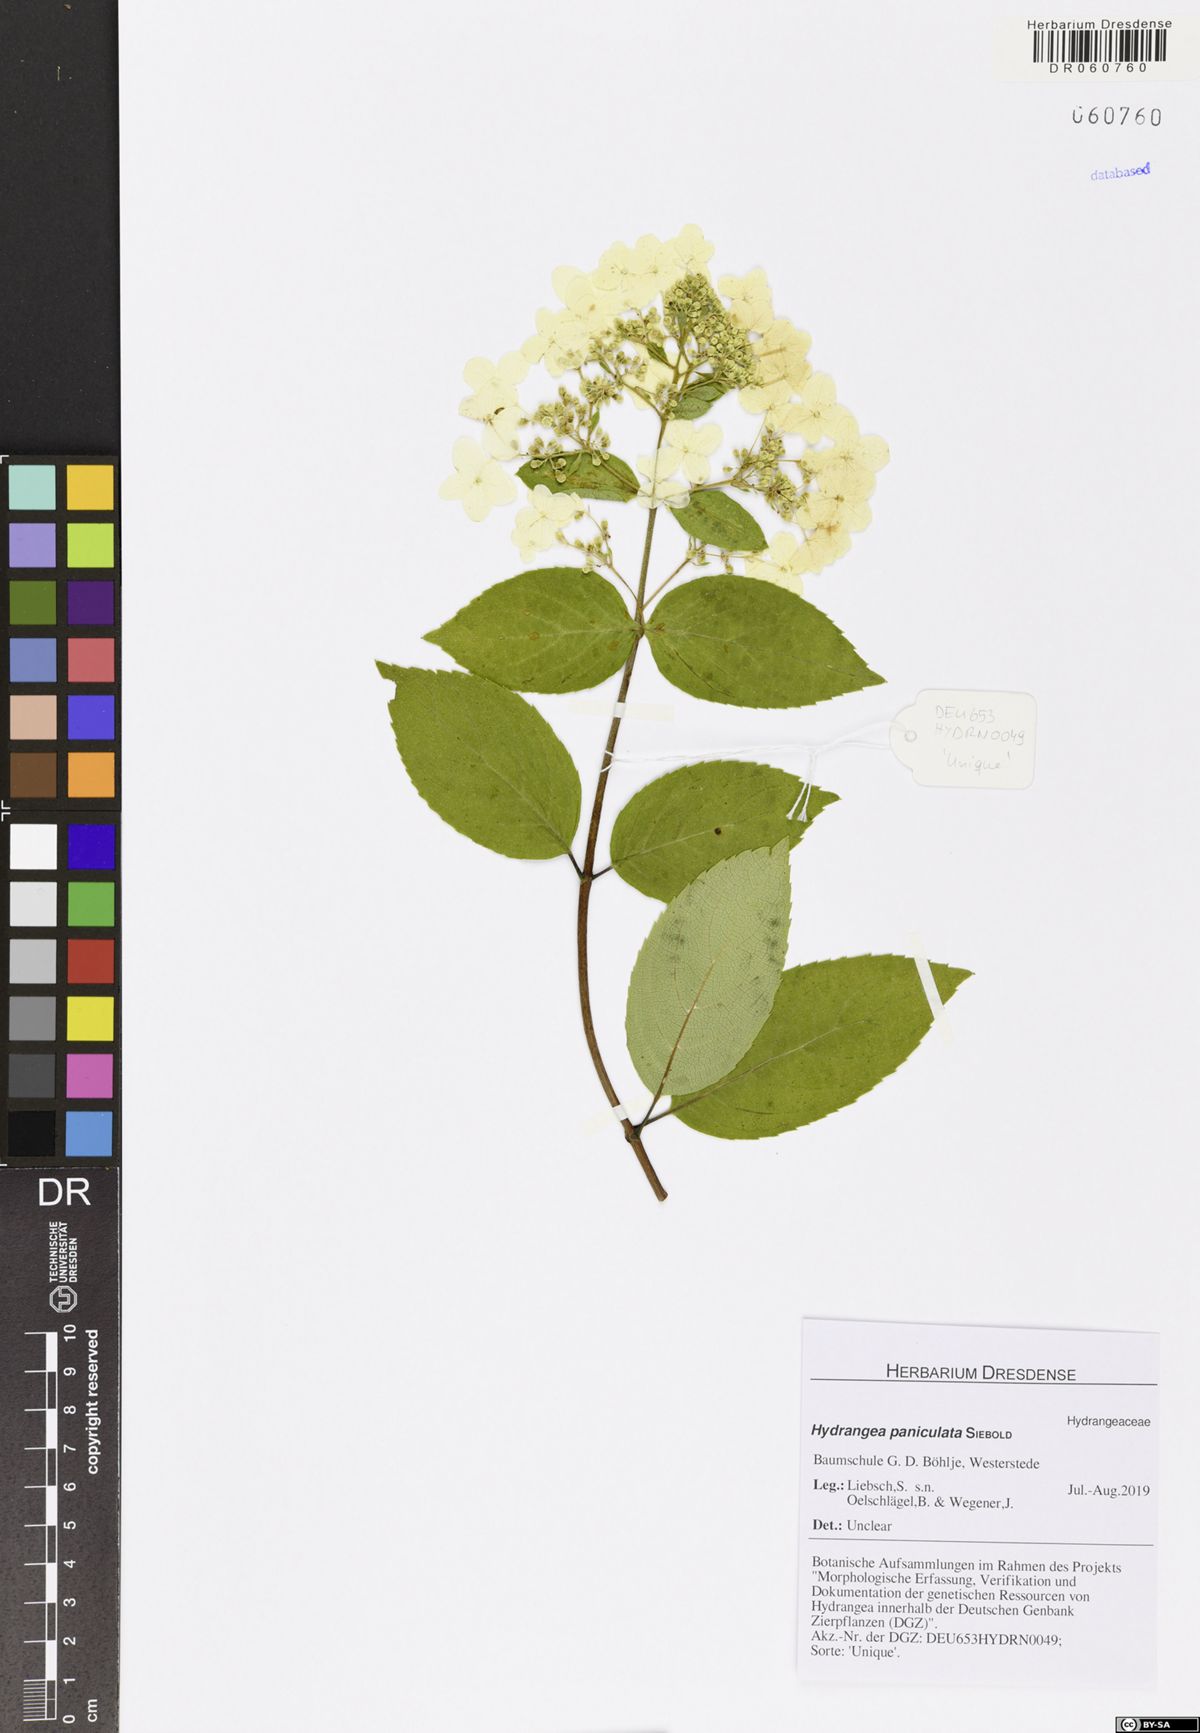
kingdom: Plantae
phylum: Tracheophyta
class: Magnoliopsida
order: Cornales
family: Hydrangeaceae
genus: Hydrangea
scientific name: Hydrangea paniculata
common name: Panicled hydrangea
